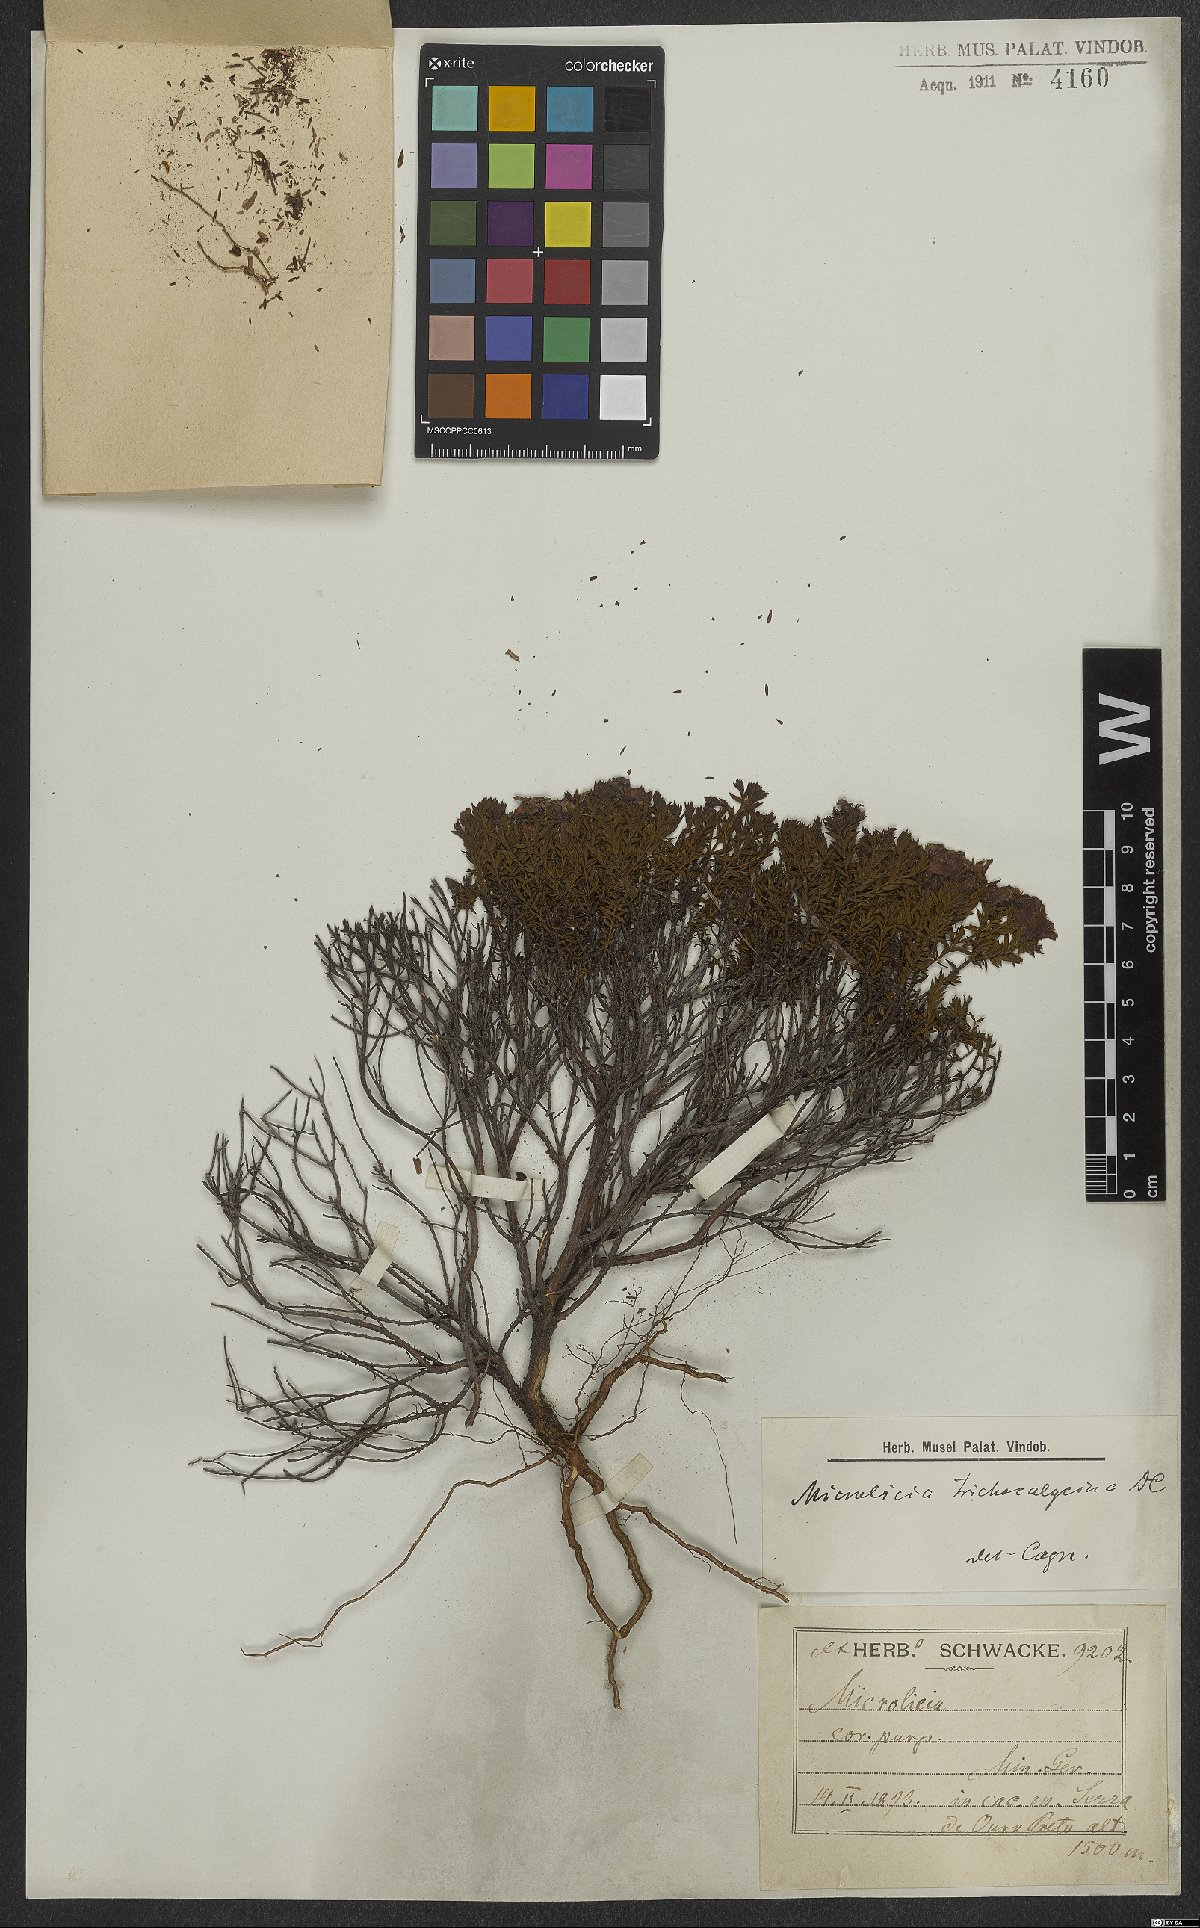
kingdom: Plantae
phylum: Tracheophyta
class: Magnoliopsida
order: Myrtales
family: Melastomataceae
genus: Microlicia
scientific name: Microlicia trichocalycina
